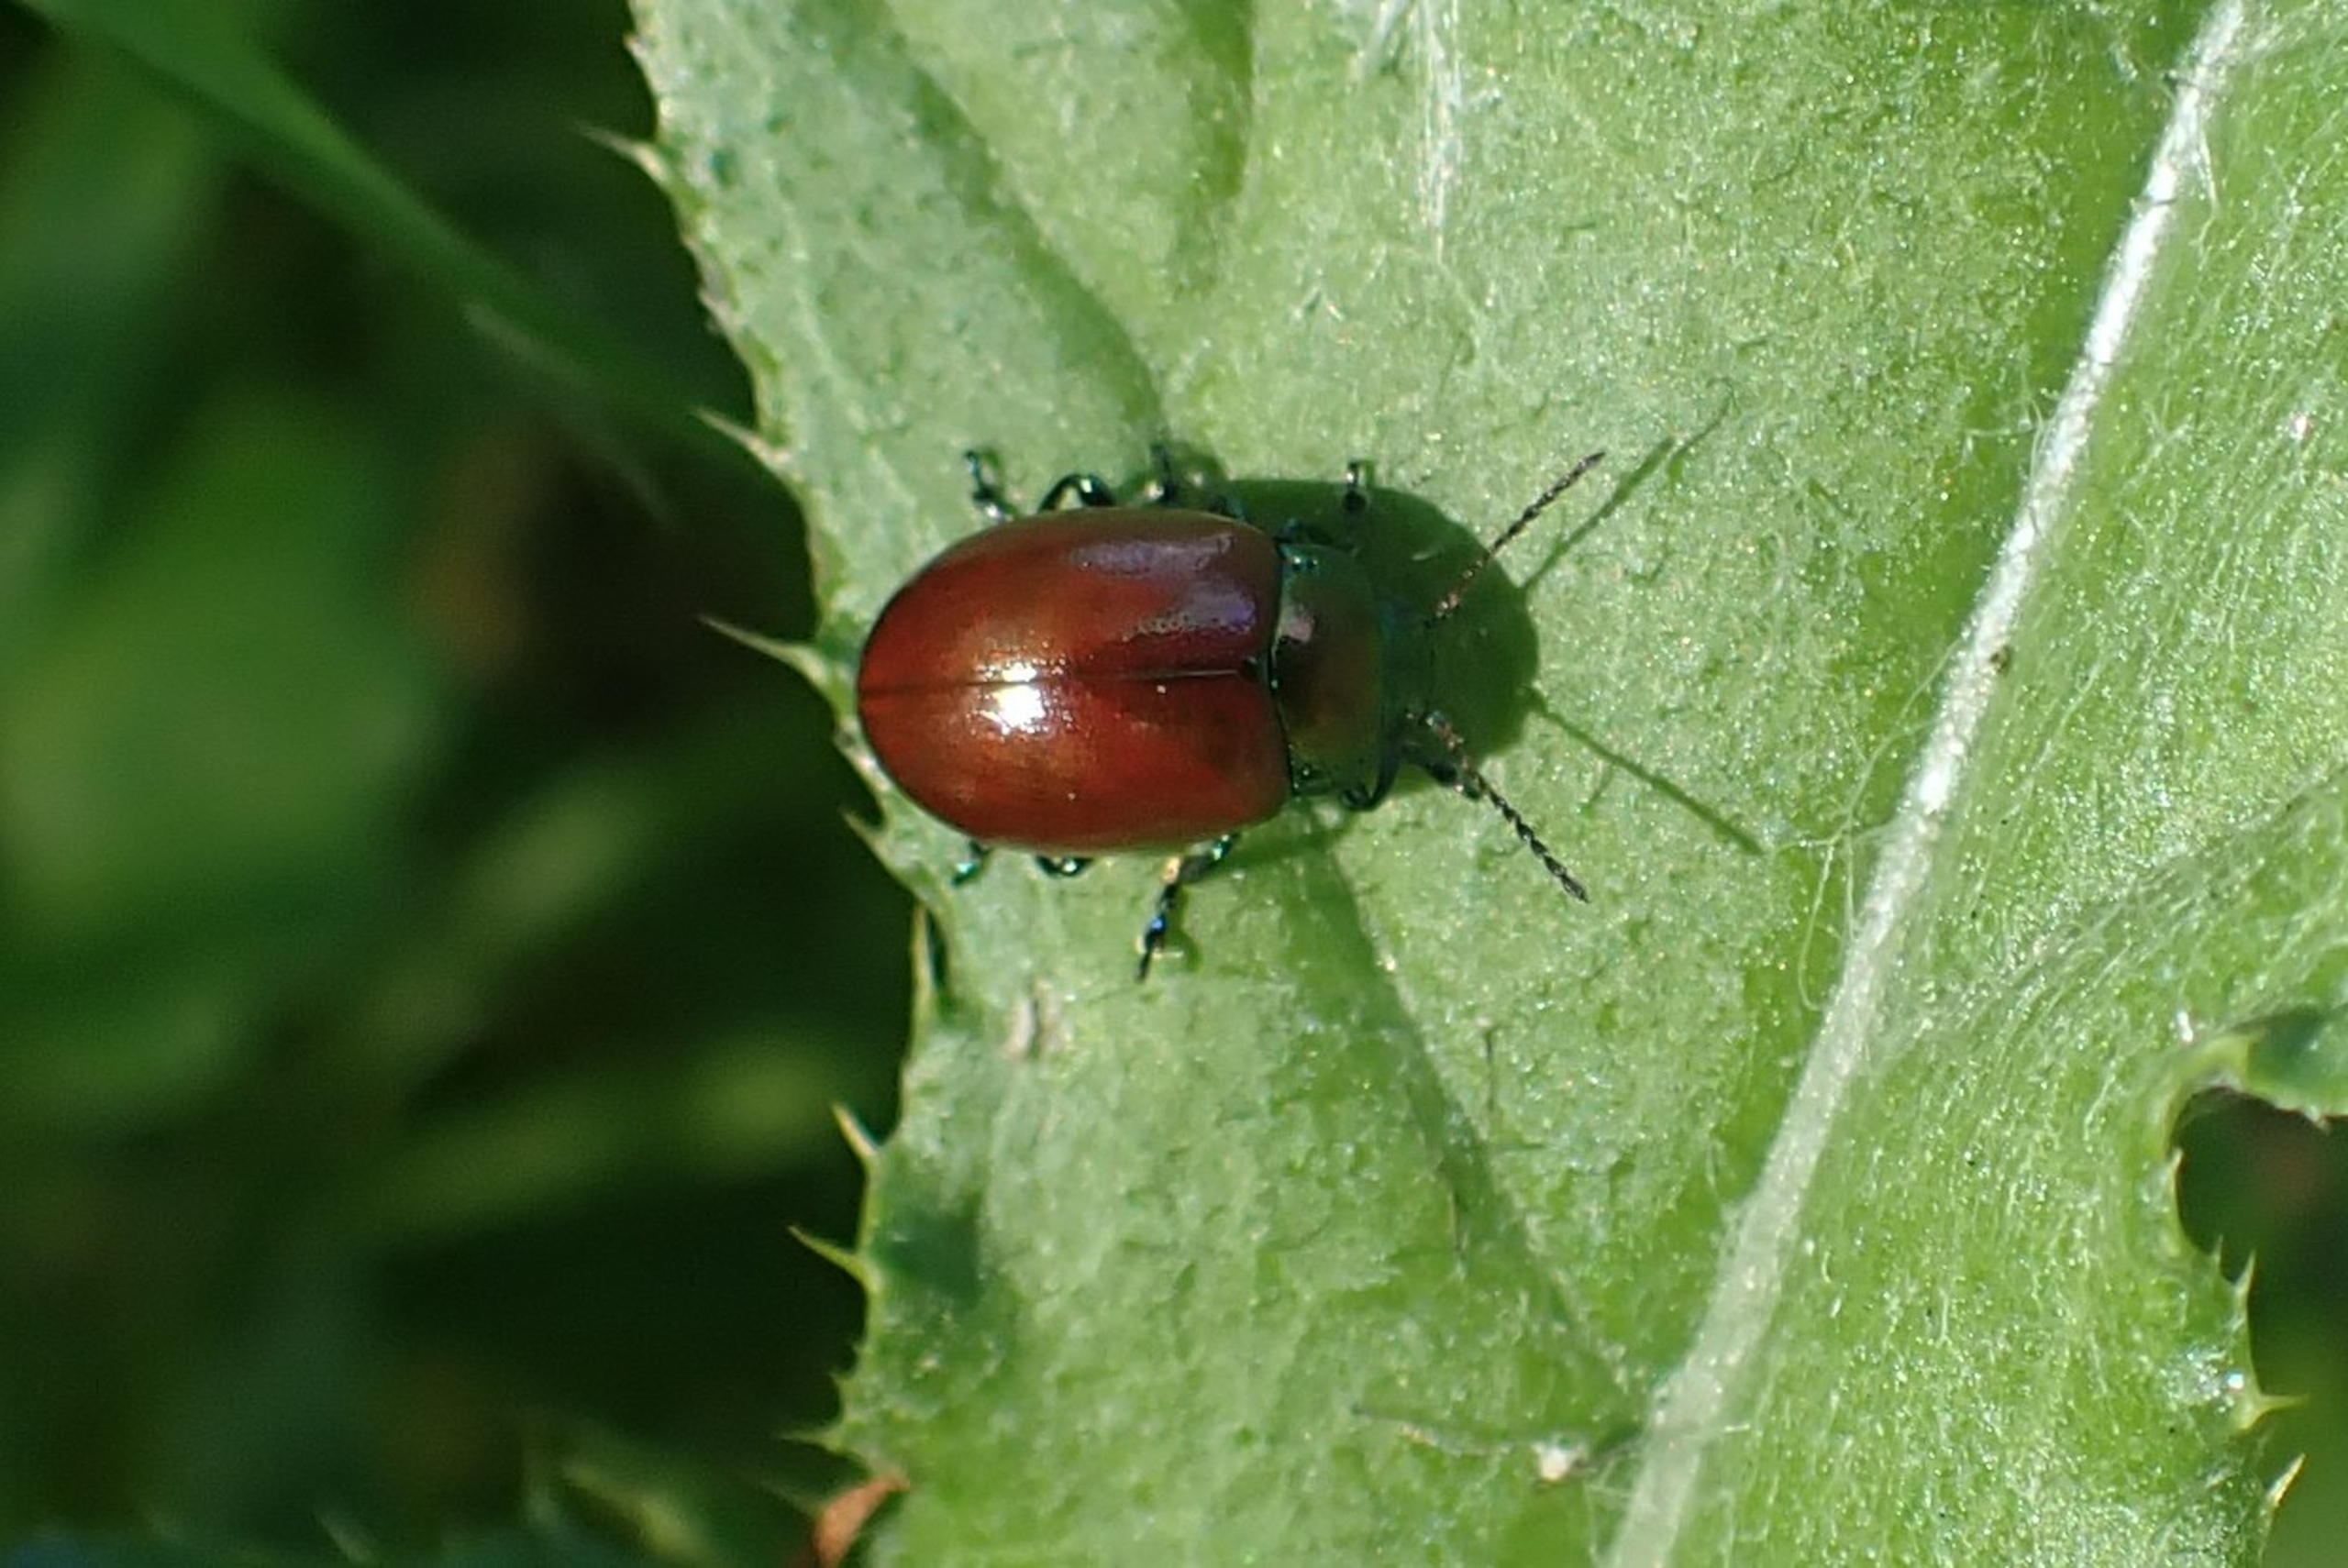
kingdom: Animalia
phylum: Arthropoda
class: Insecta
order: Coleoptera
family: Chrysomelidae
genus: Chrysomela
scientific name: Chrysomela polita
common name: Forskelligfarvet guldbille
